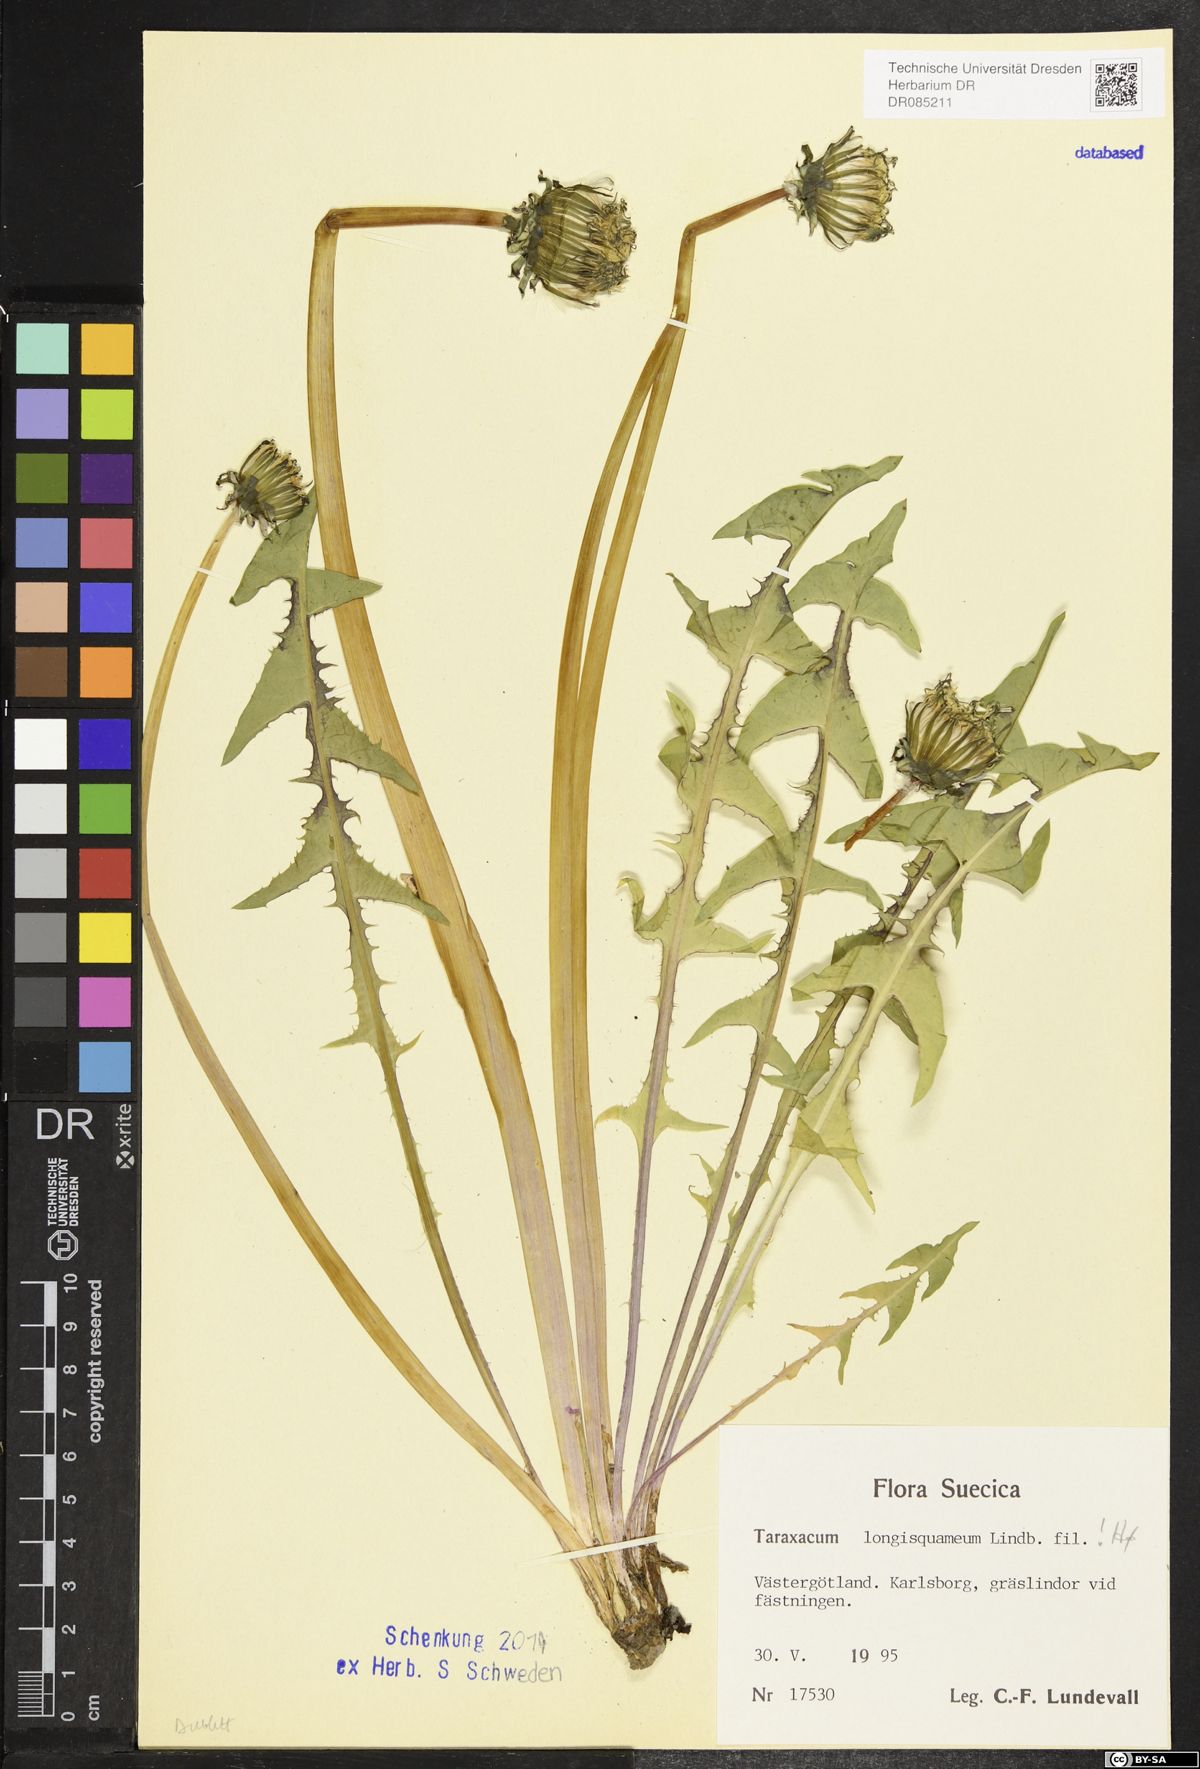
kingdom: Plantae
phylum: Tracheophyta
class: Magnoliopsida
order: Asterales
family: Asteraceae
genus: Taraxacum
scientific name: Taraxacum longisquameum
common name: Elongate-bracted dandelion
